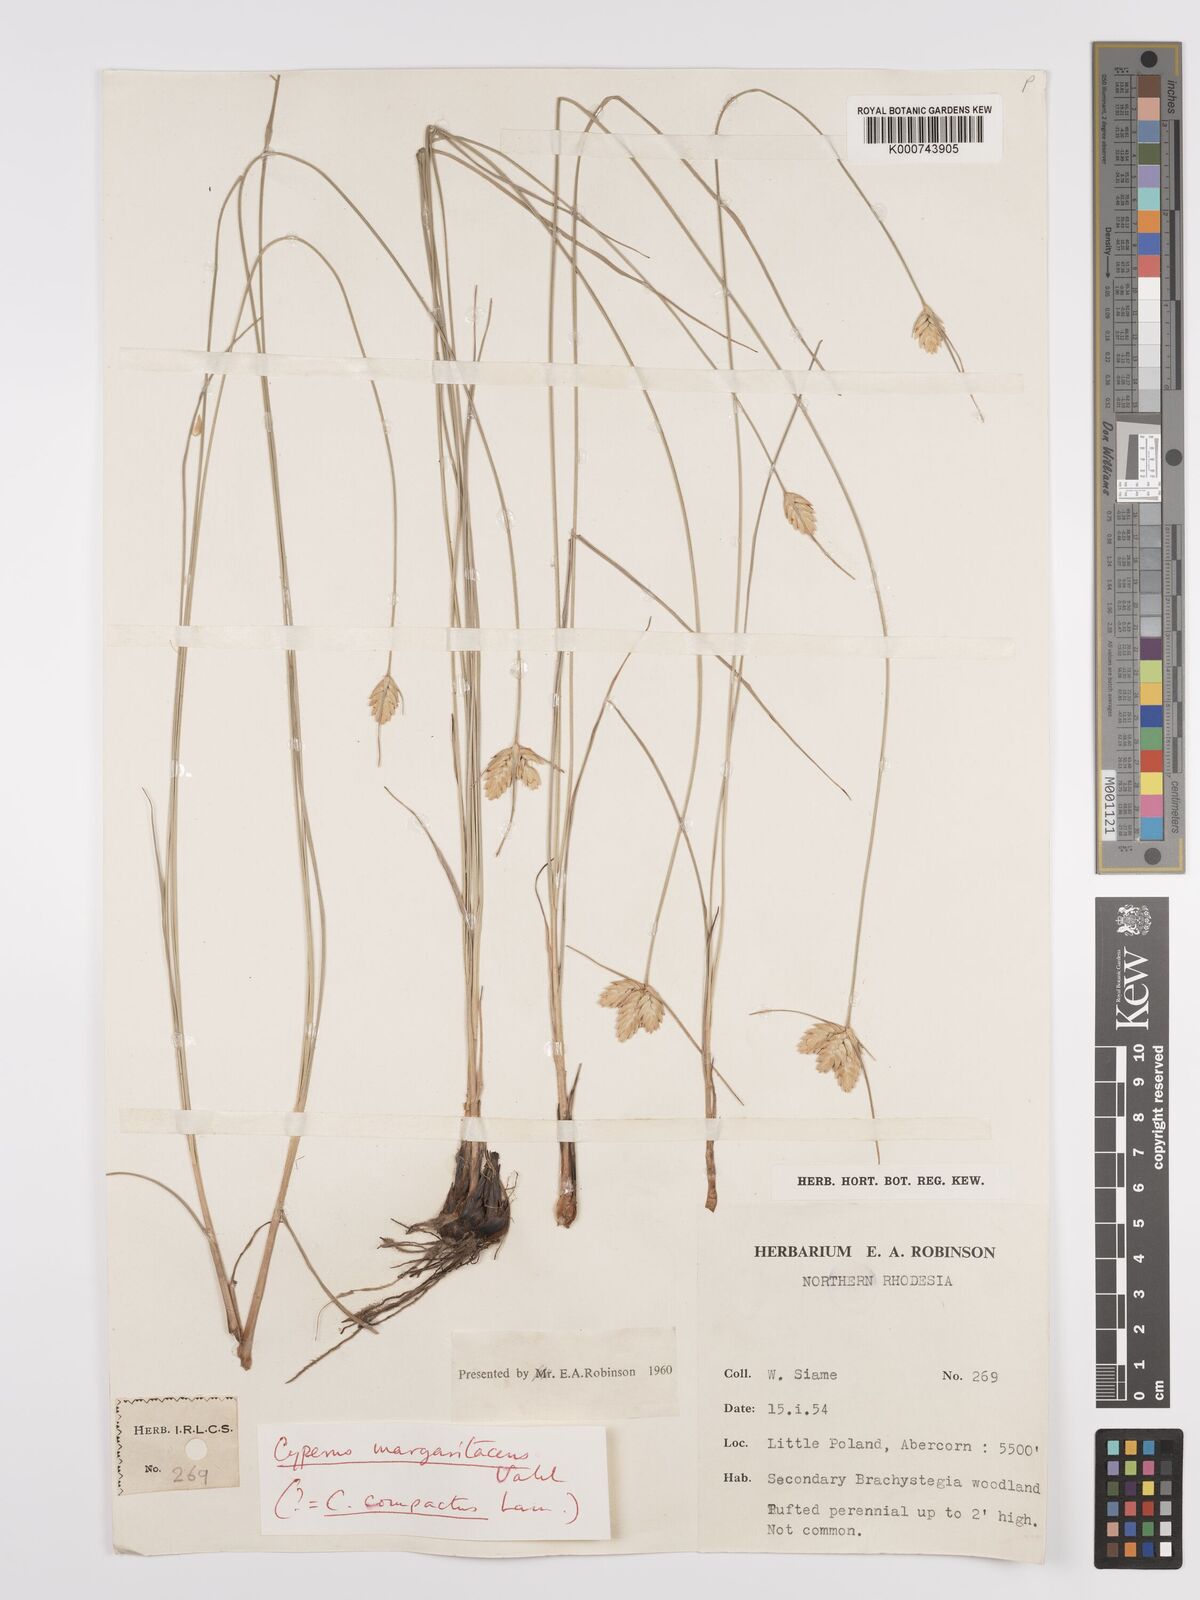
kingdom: Plantae
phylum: Tracheophyta
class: Liliopsida
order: Poales
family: Cyperaceae
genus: Cyperus
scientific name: Cyperus margaritaceus
